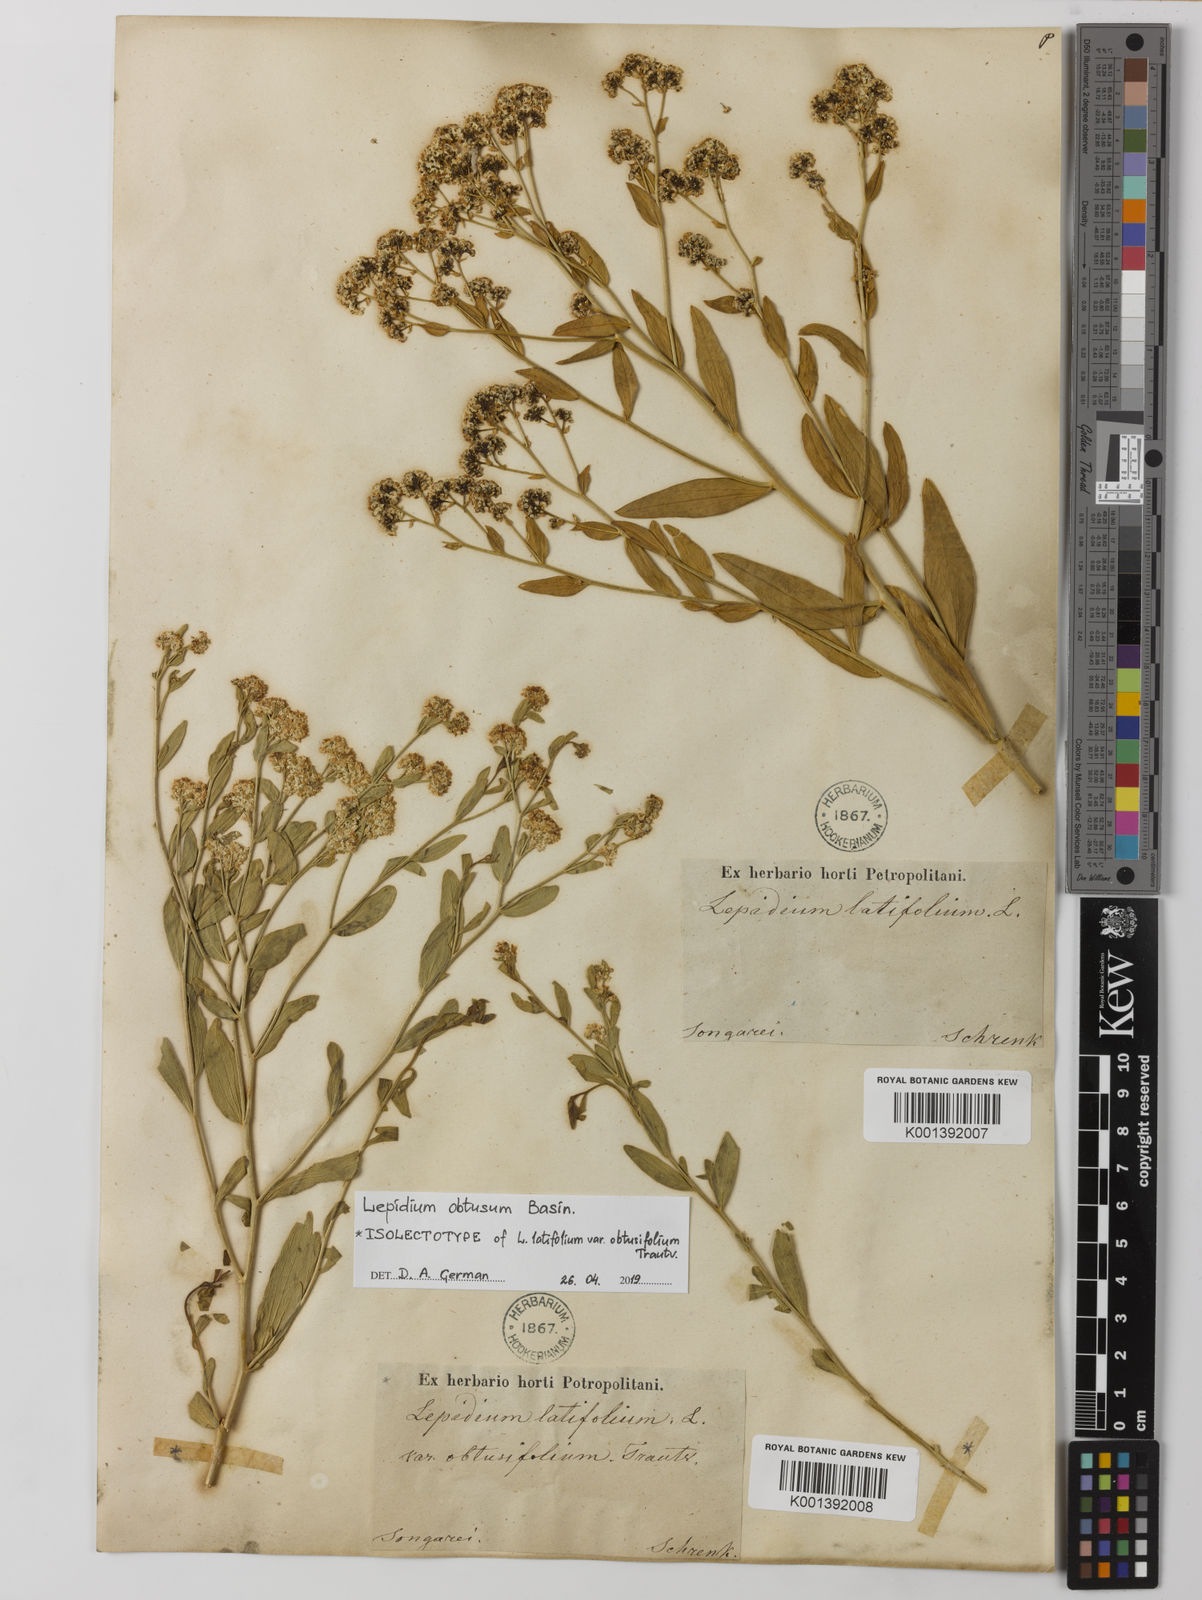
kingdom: Plantae
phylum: Tracheophyta
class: Magnoliopsida
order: Brassicales
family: Brassicaceae
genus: Lepidium
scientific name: Lepidium obtusum
